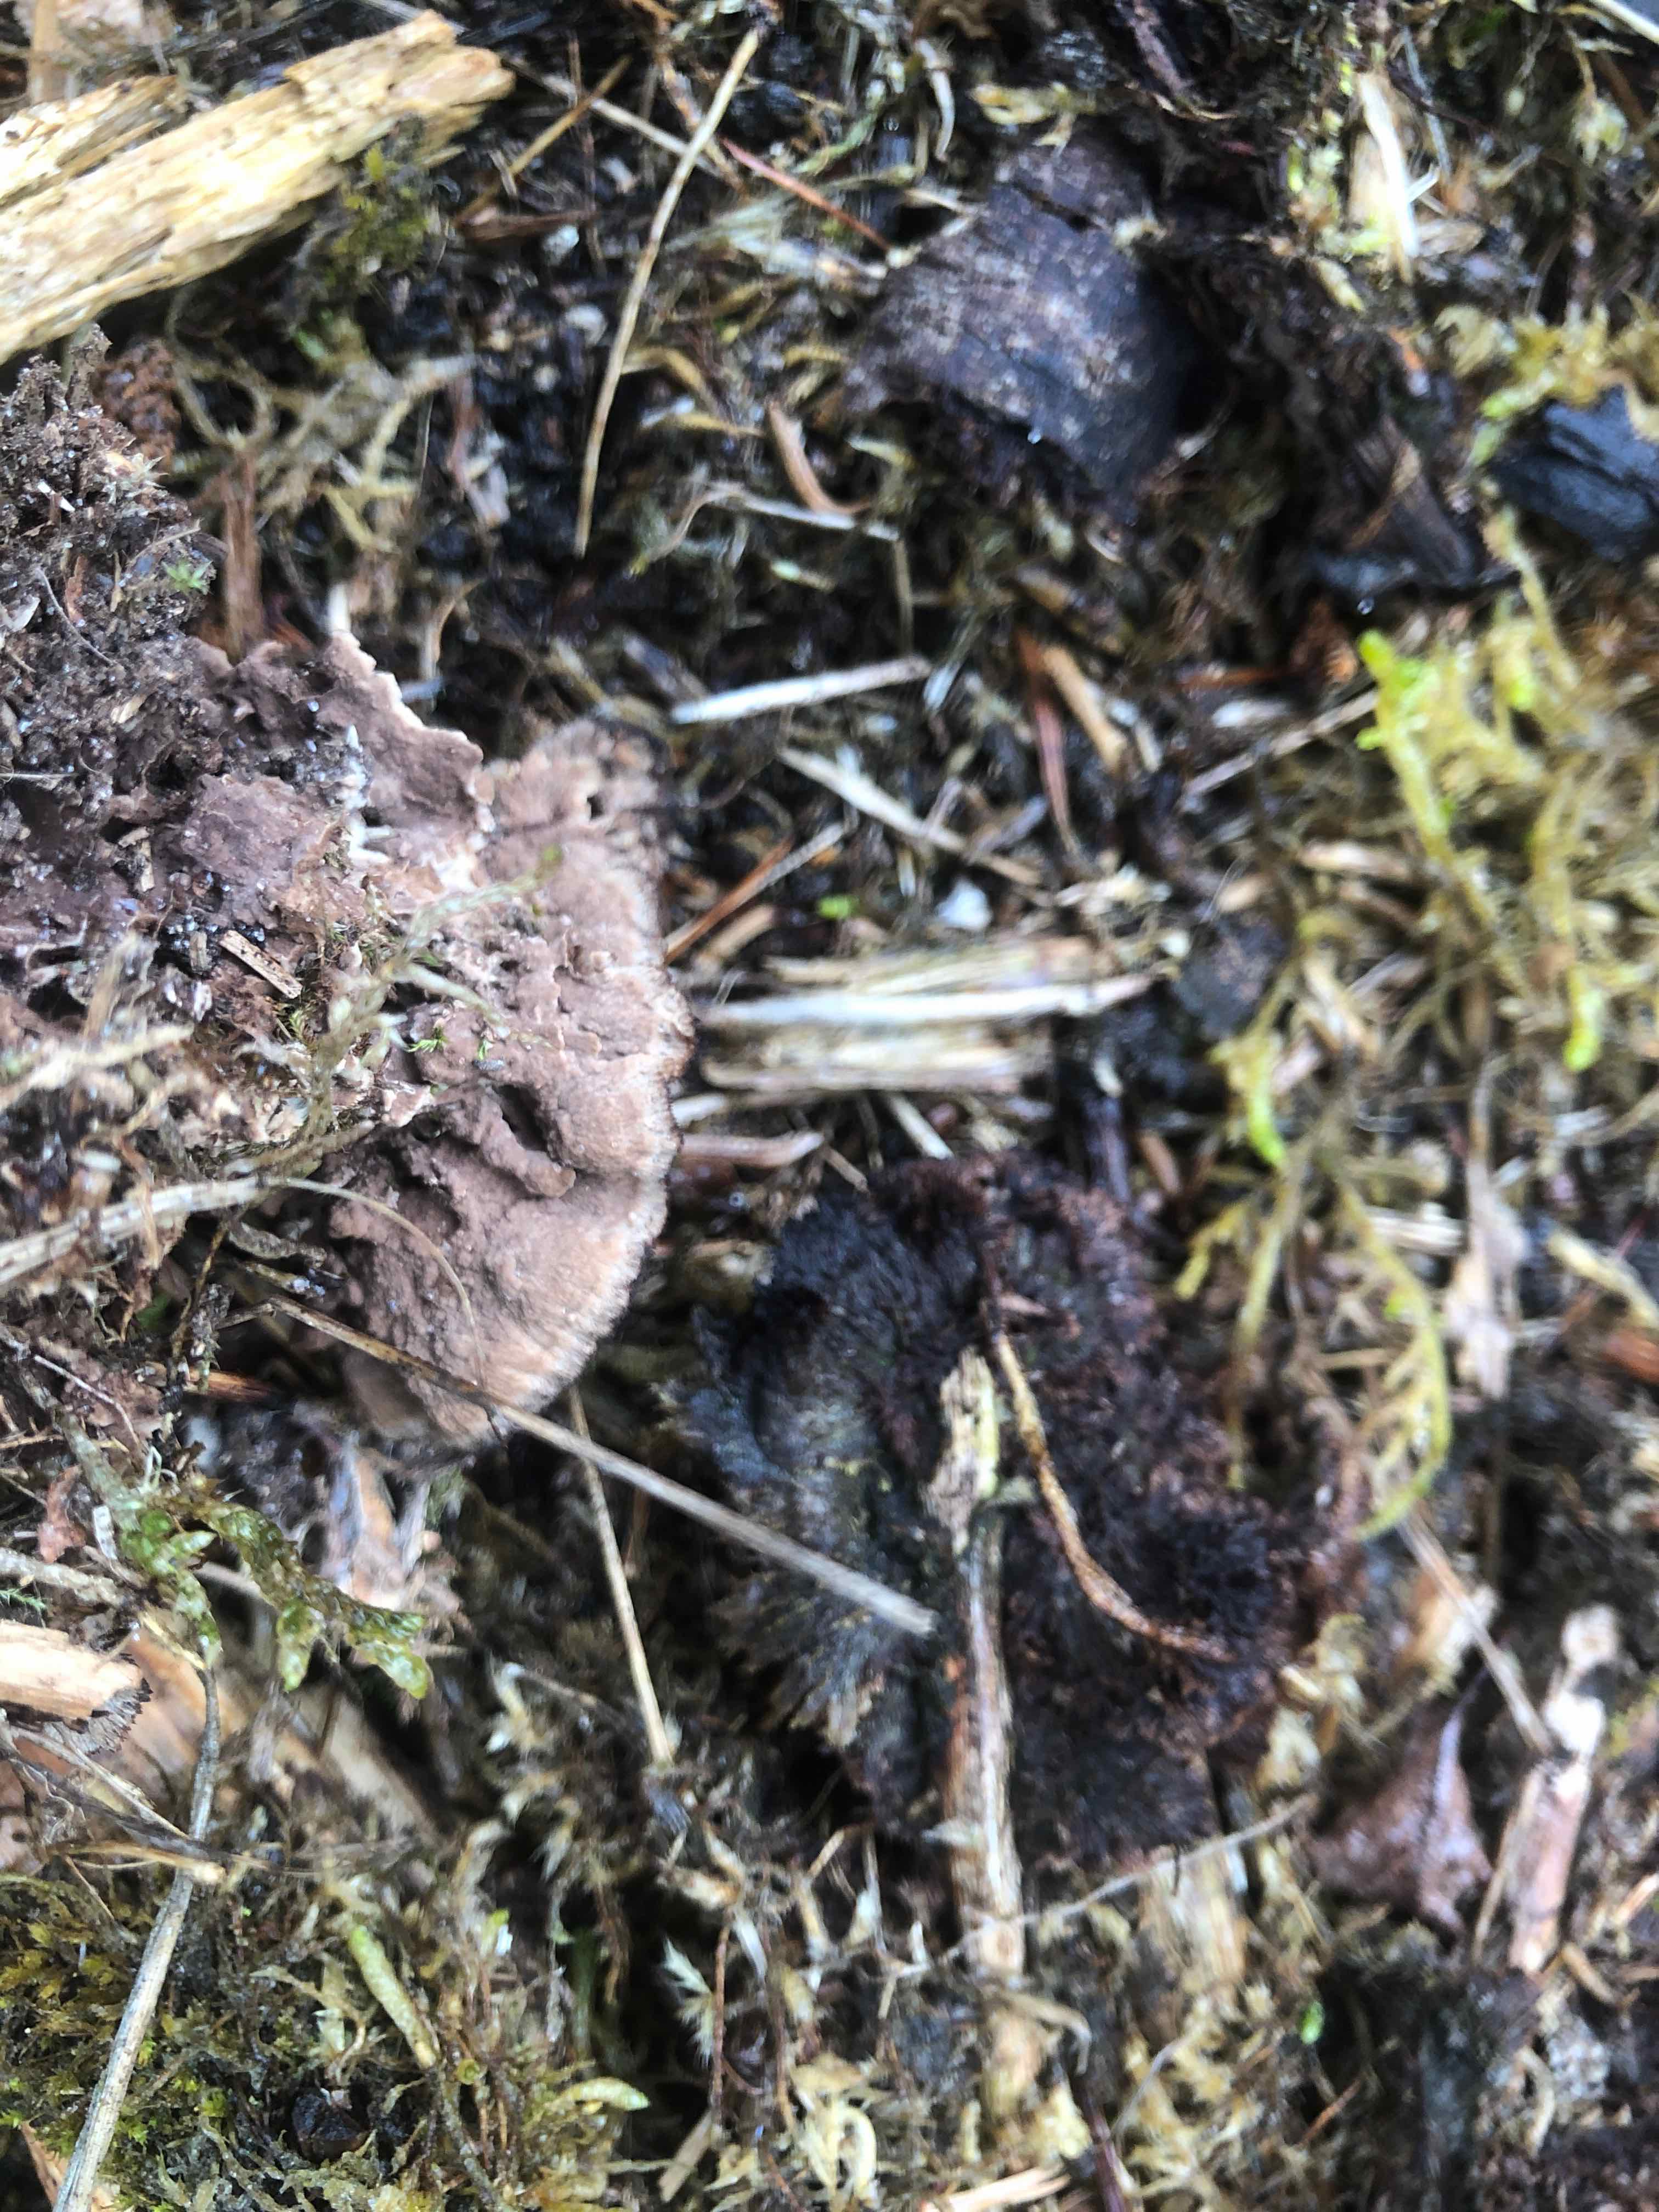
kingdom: Fungi
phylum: Basidiomycota
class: Agaricomycetes
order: Thelephorales
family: Thelephoraceae
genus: Thelephora
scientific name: Thelephora terrestris
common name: fliget frynsesvamp
